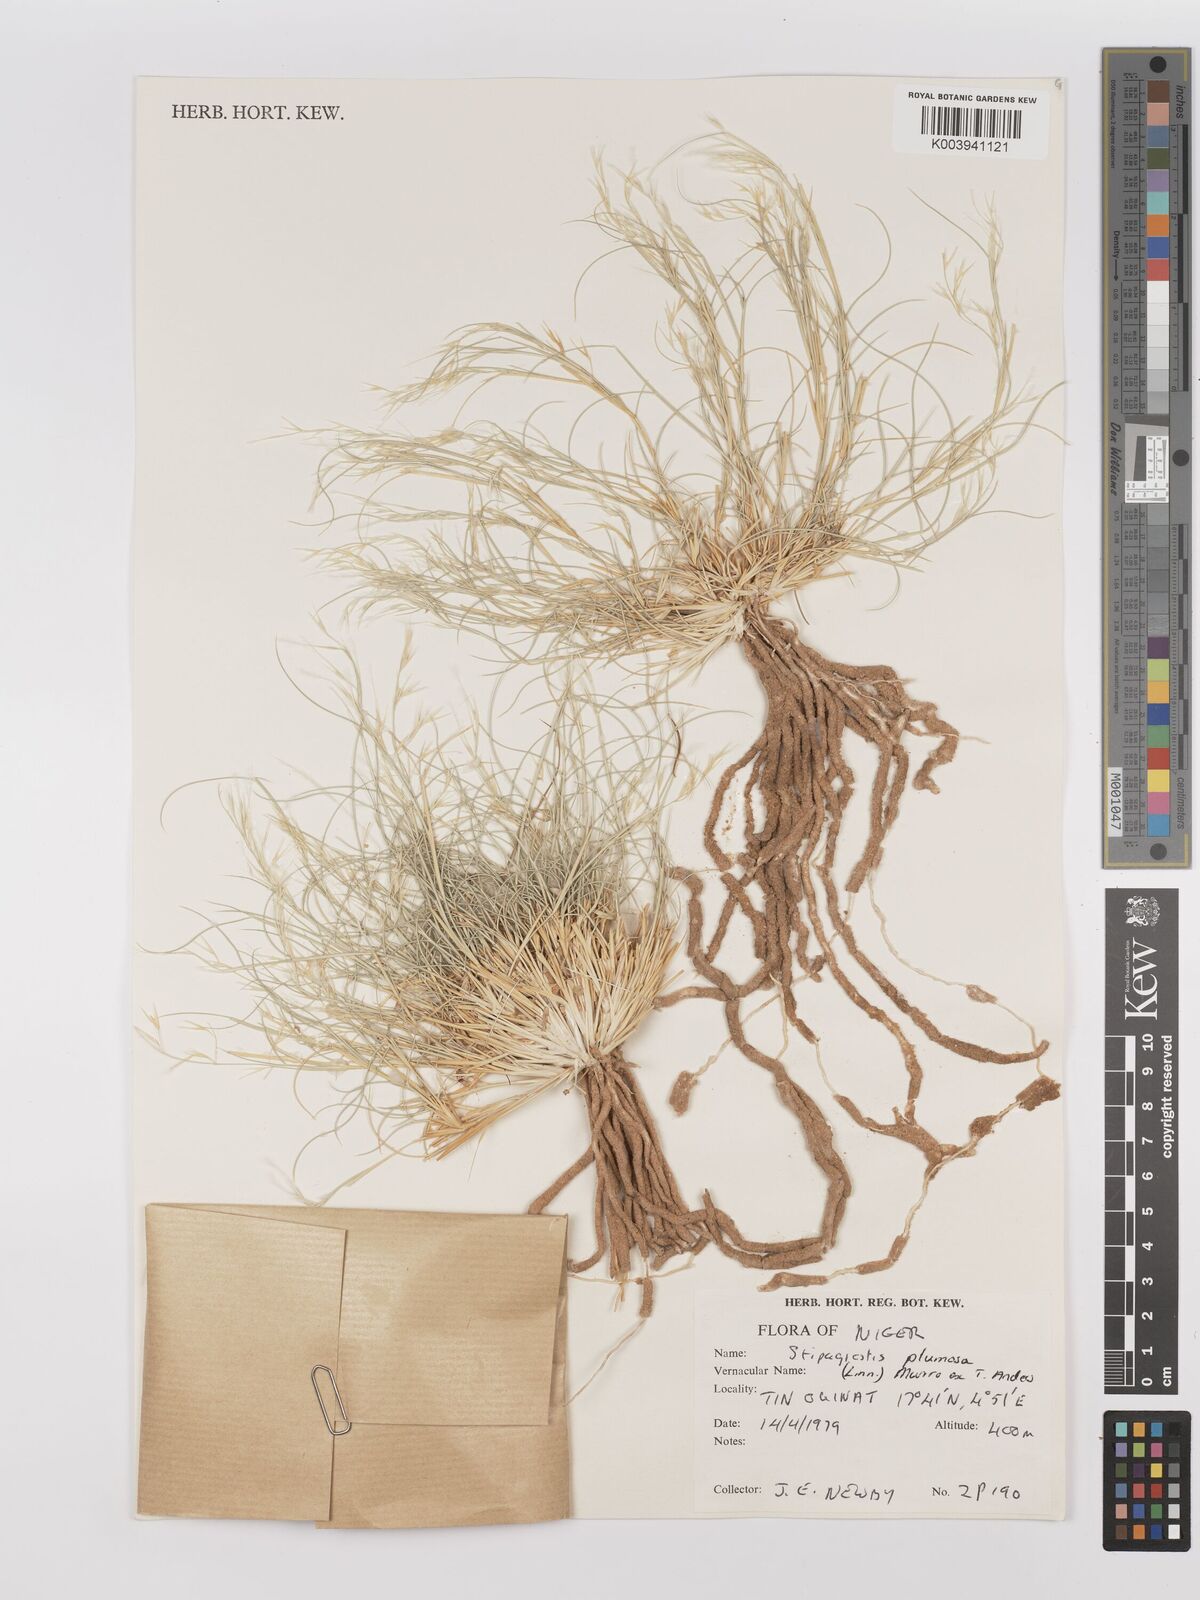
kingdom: Plantae
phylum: Tracheophyta
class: Liliopsida
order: Poales
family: Poaceae
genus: Stipagrostis
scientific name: Stipagrostis plumosa
